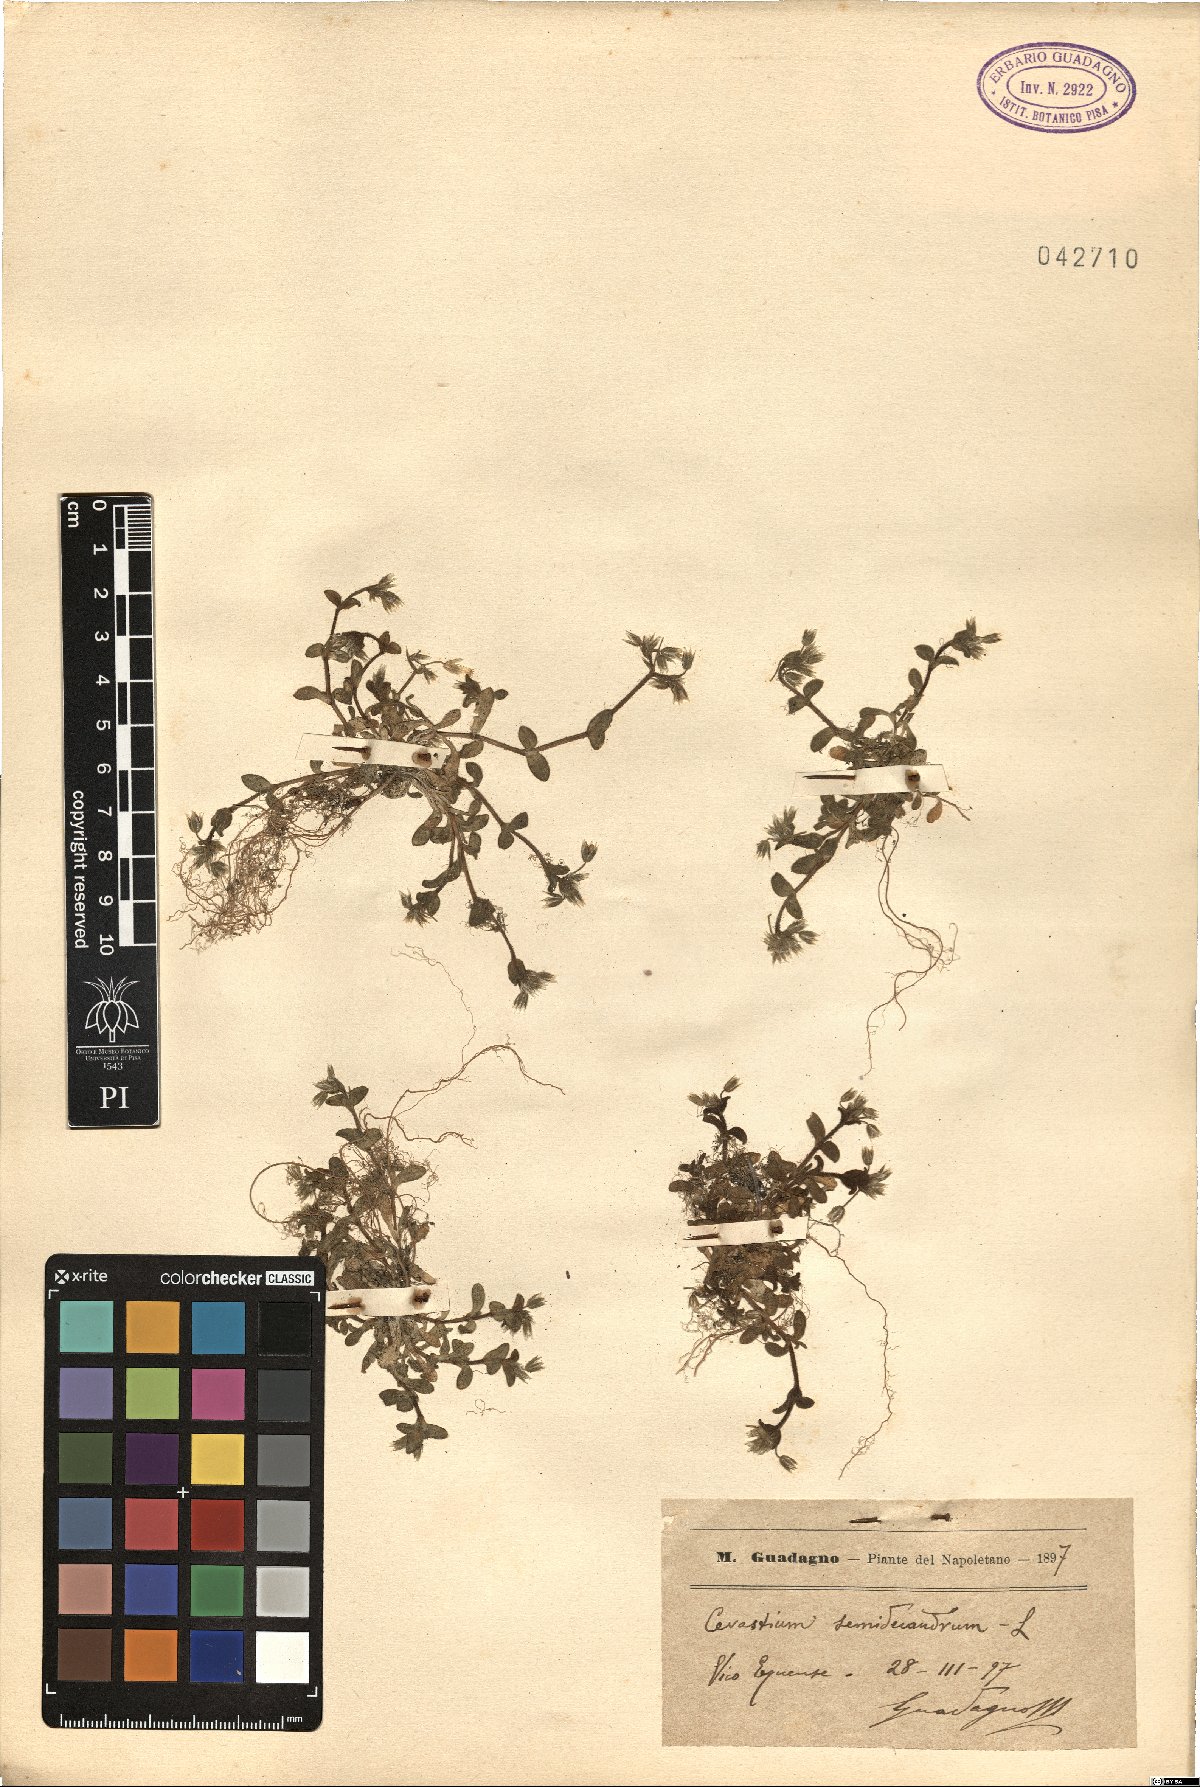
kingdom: Plantae
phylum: Tracheophyta
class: Magnoliopsida
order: Caryophyllales
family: Caryophyllaceae
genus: Cerastium
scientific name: Cerastium semidecandrum
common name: Little mouse-ear
